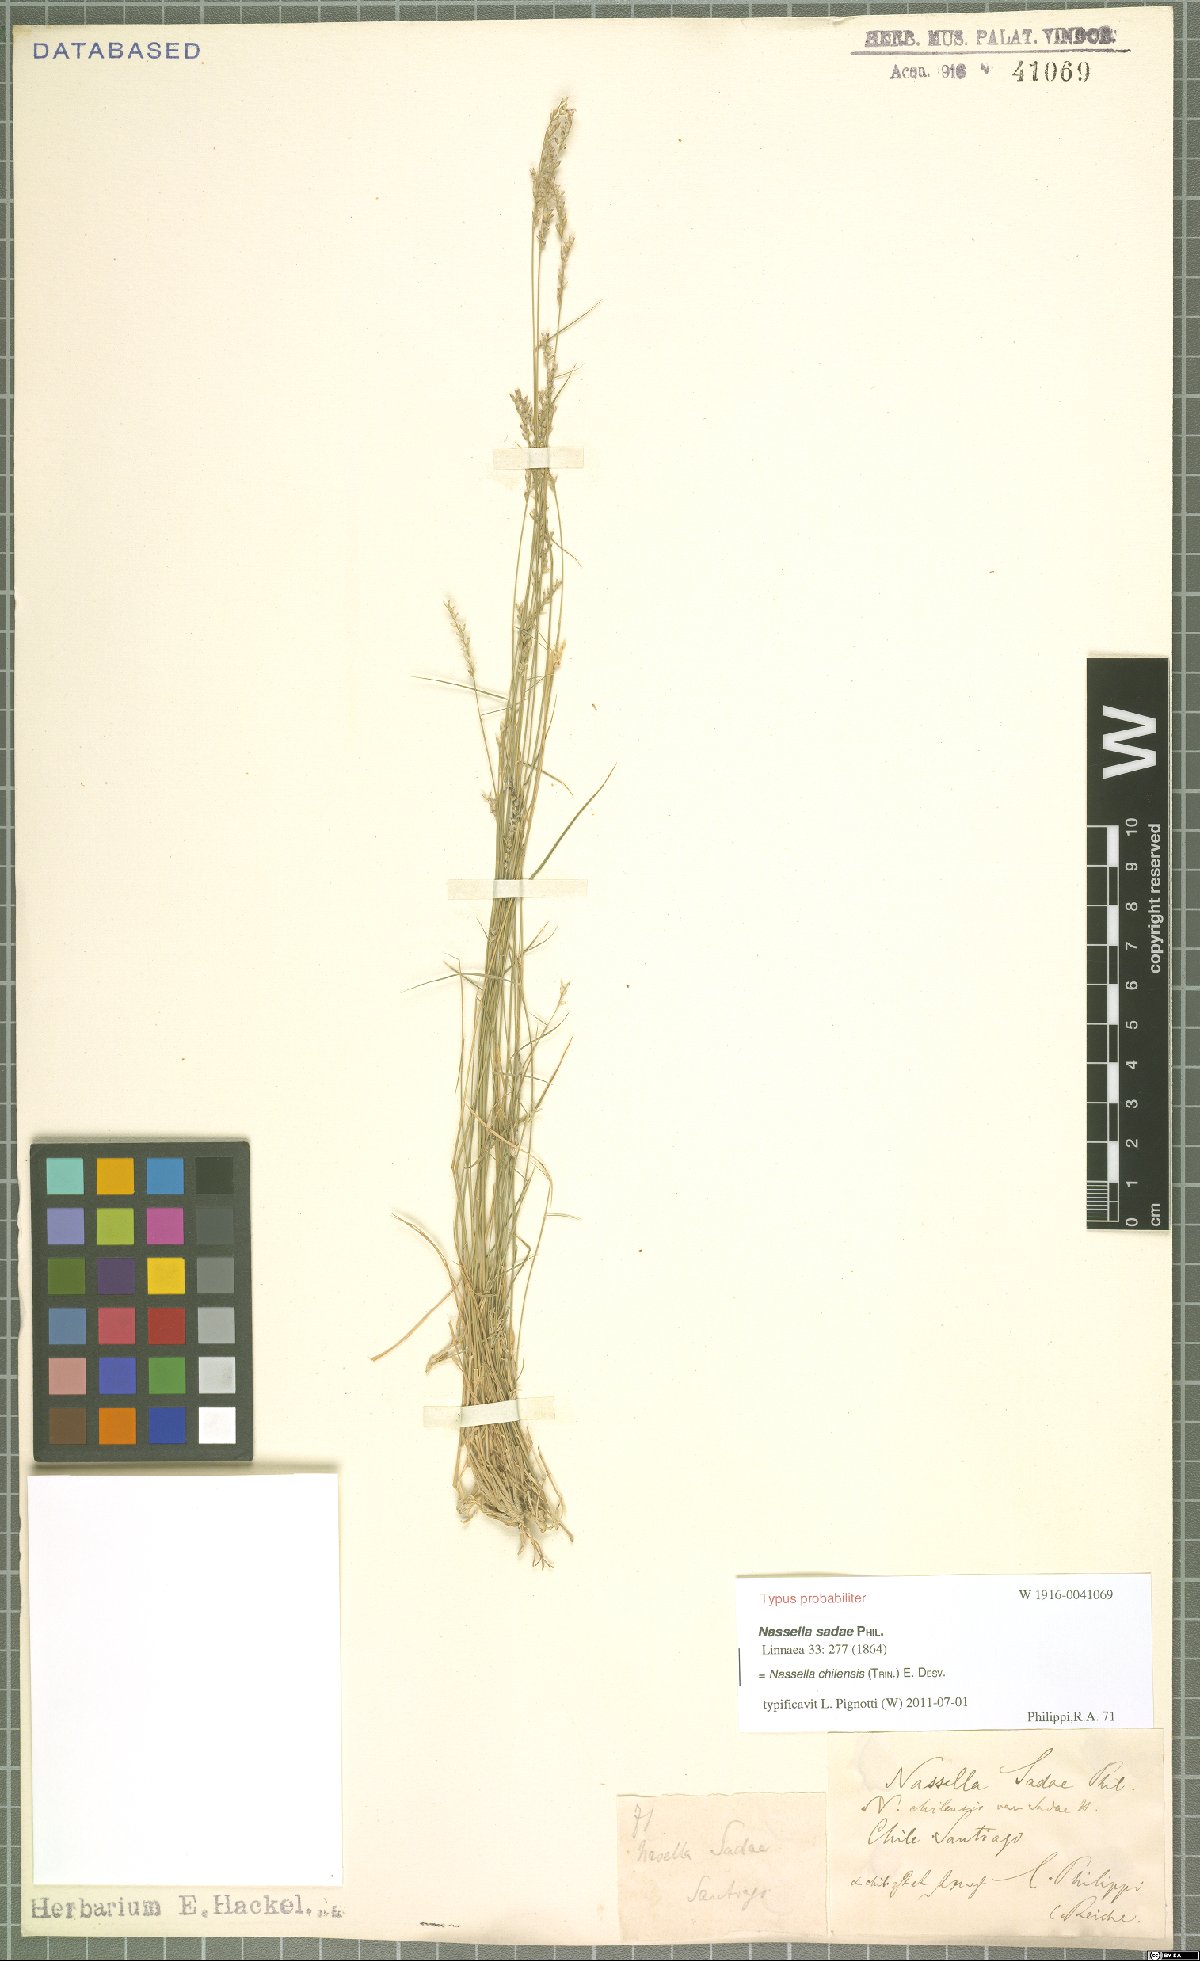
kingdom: Plantae
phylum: Tracheophyta
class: Liliopsida
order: Poales
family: Poaceae
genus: Nassella
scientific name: Nassella chilensis
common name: Chilean needlegrass
